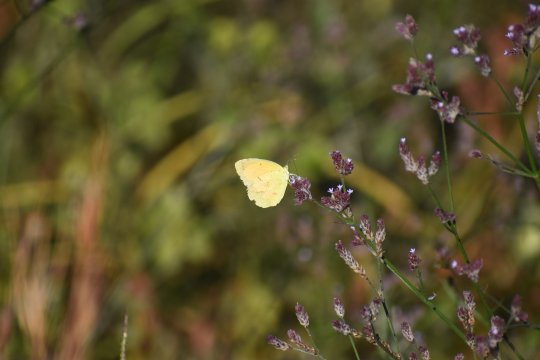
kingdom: Animalia
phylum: Arthropoda
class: Insecta
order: Lepidoptera
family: Pieridae
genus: Abaeis
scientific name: Abaeis nicippe
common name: Sleepy Orange
